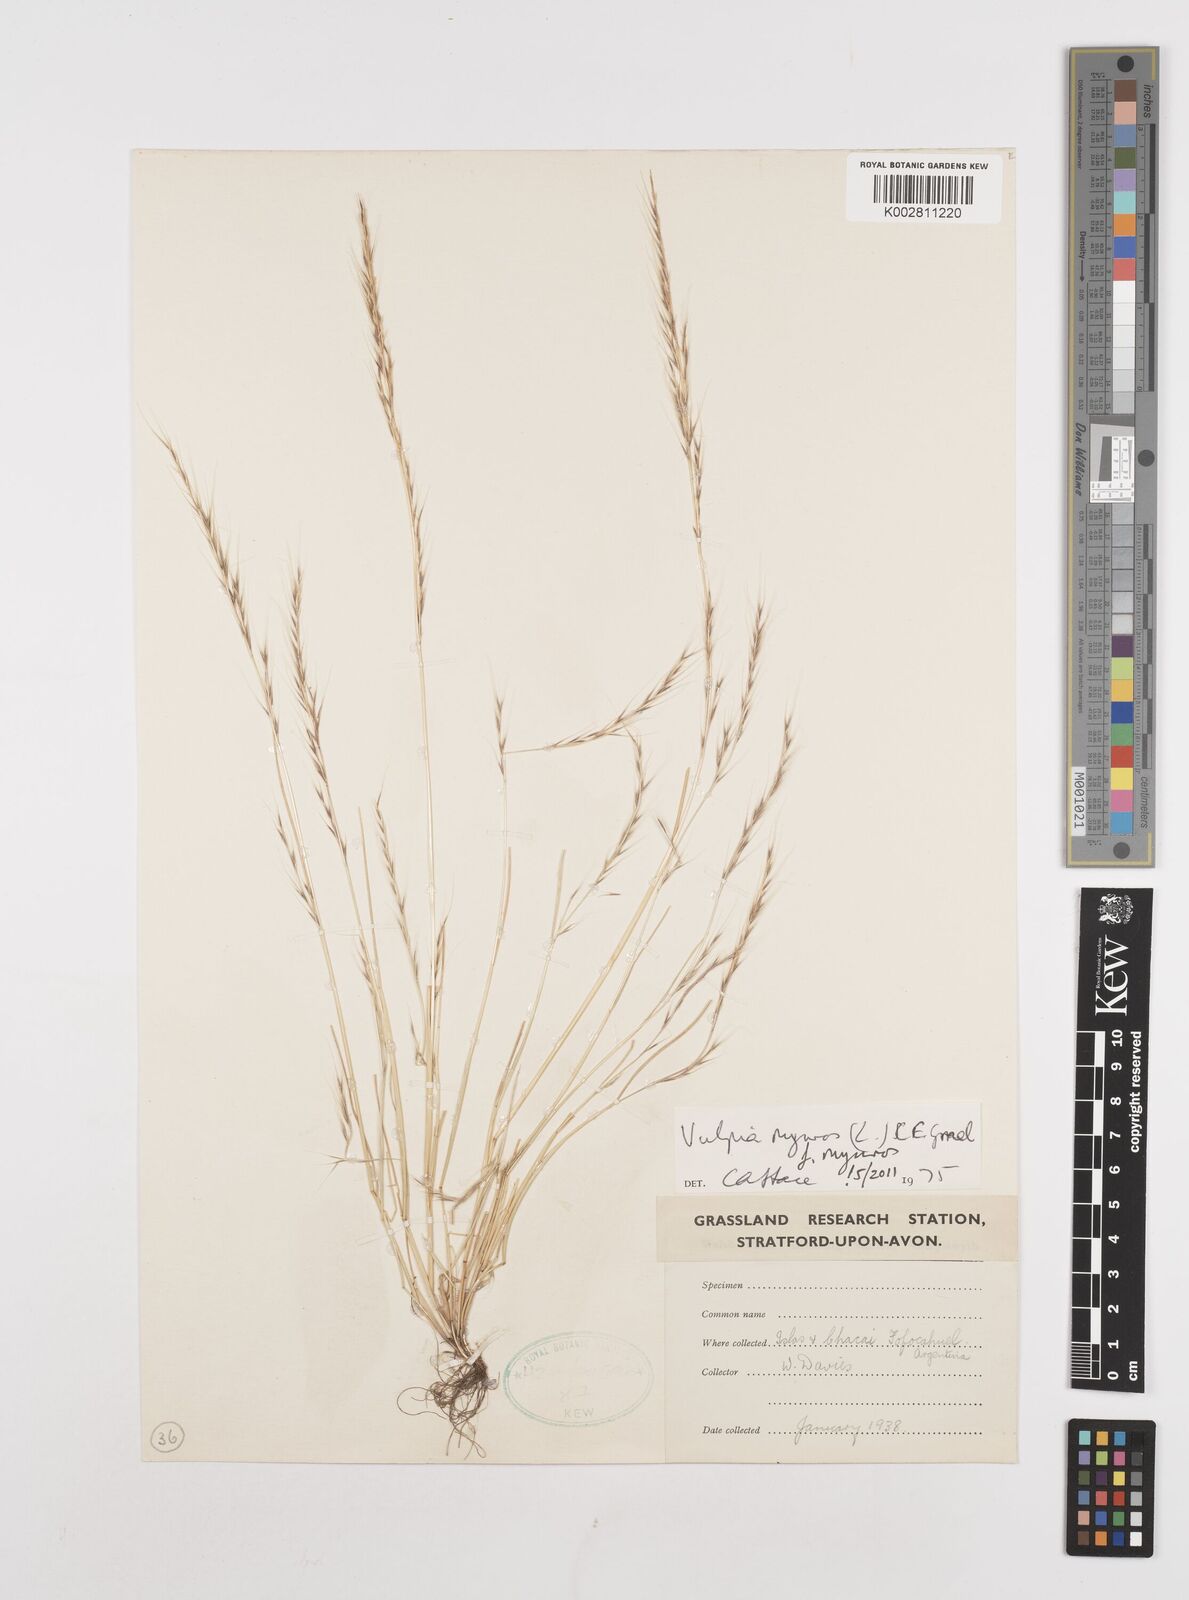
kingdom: Plantae
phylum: Tracheophyta
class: Liliopsida
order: Poales
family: Poaceae
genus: Festuca
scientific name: Festuca myuros
